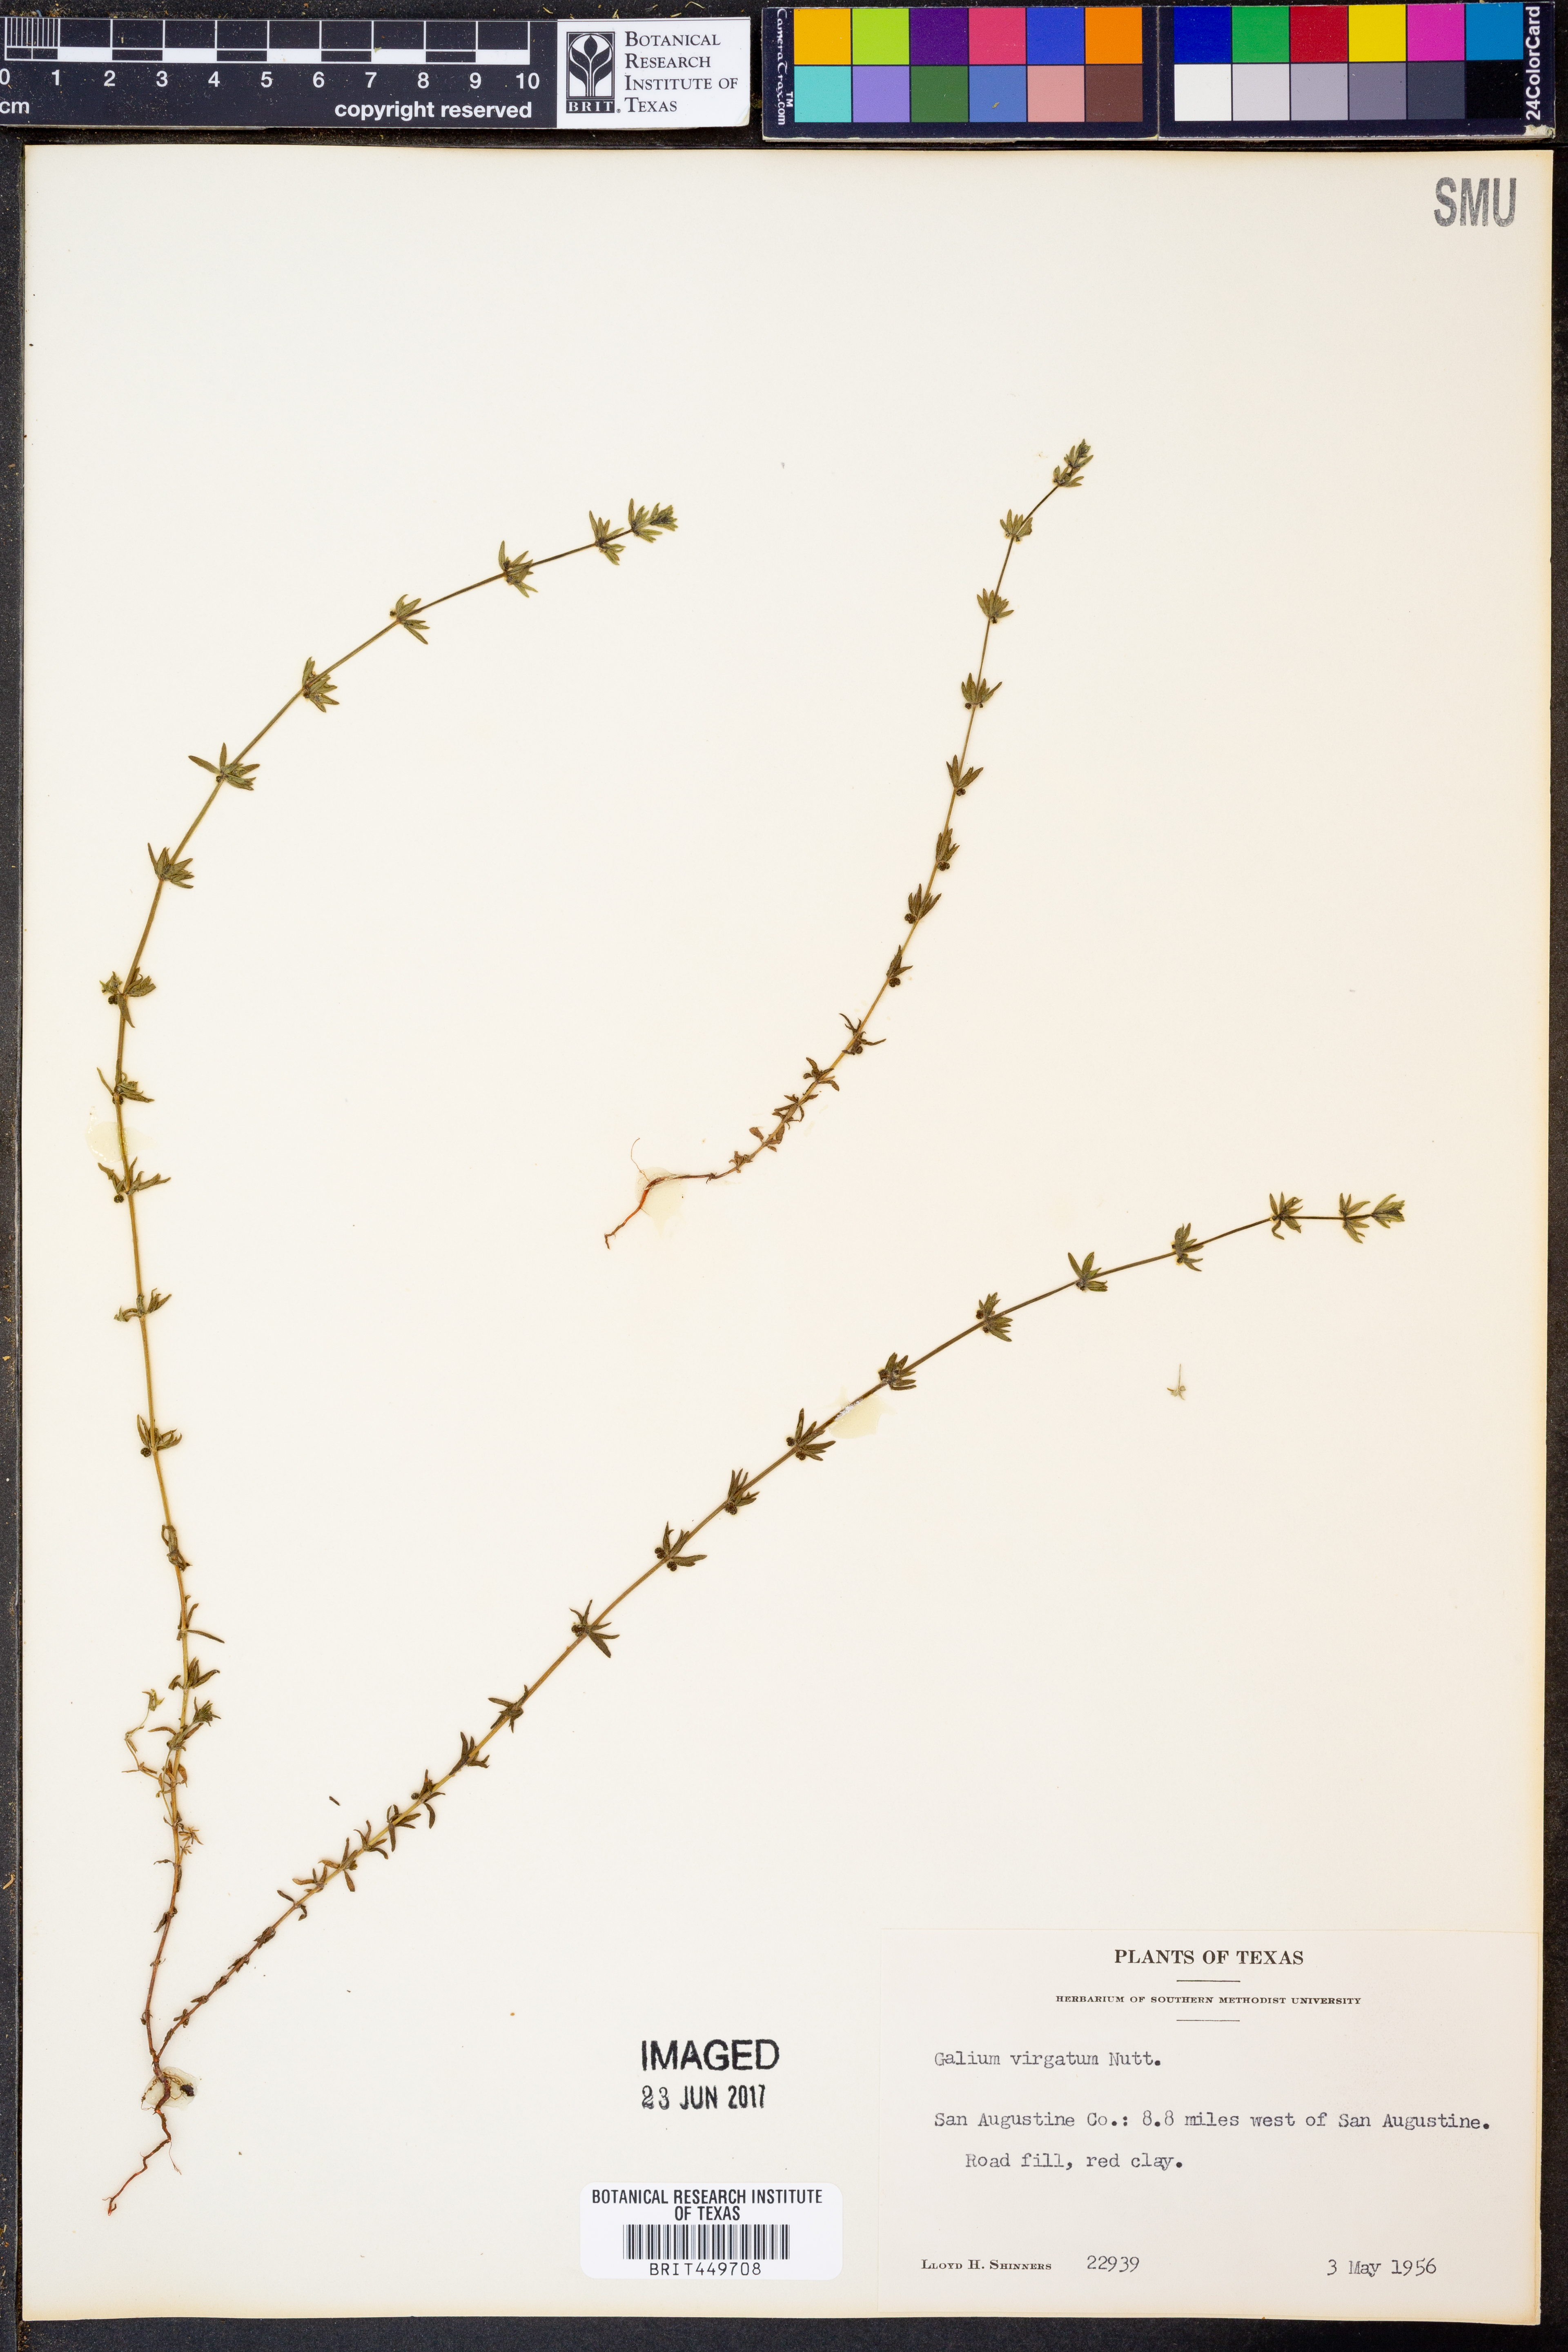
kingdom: Plantae
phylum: Tracheophyta
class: Magnoliopsida
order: Gentianales
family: Rubiaceae
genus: Galium
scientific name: Galium virgatum
